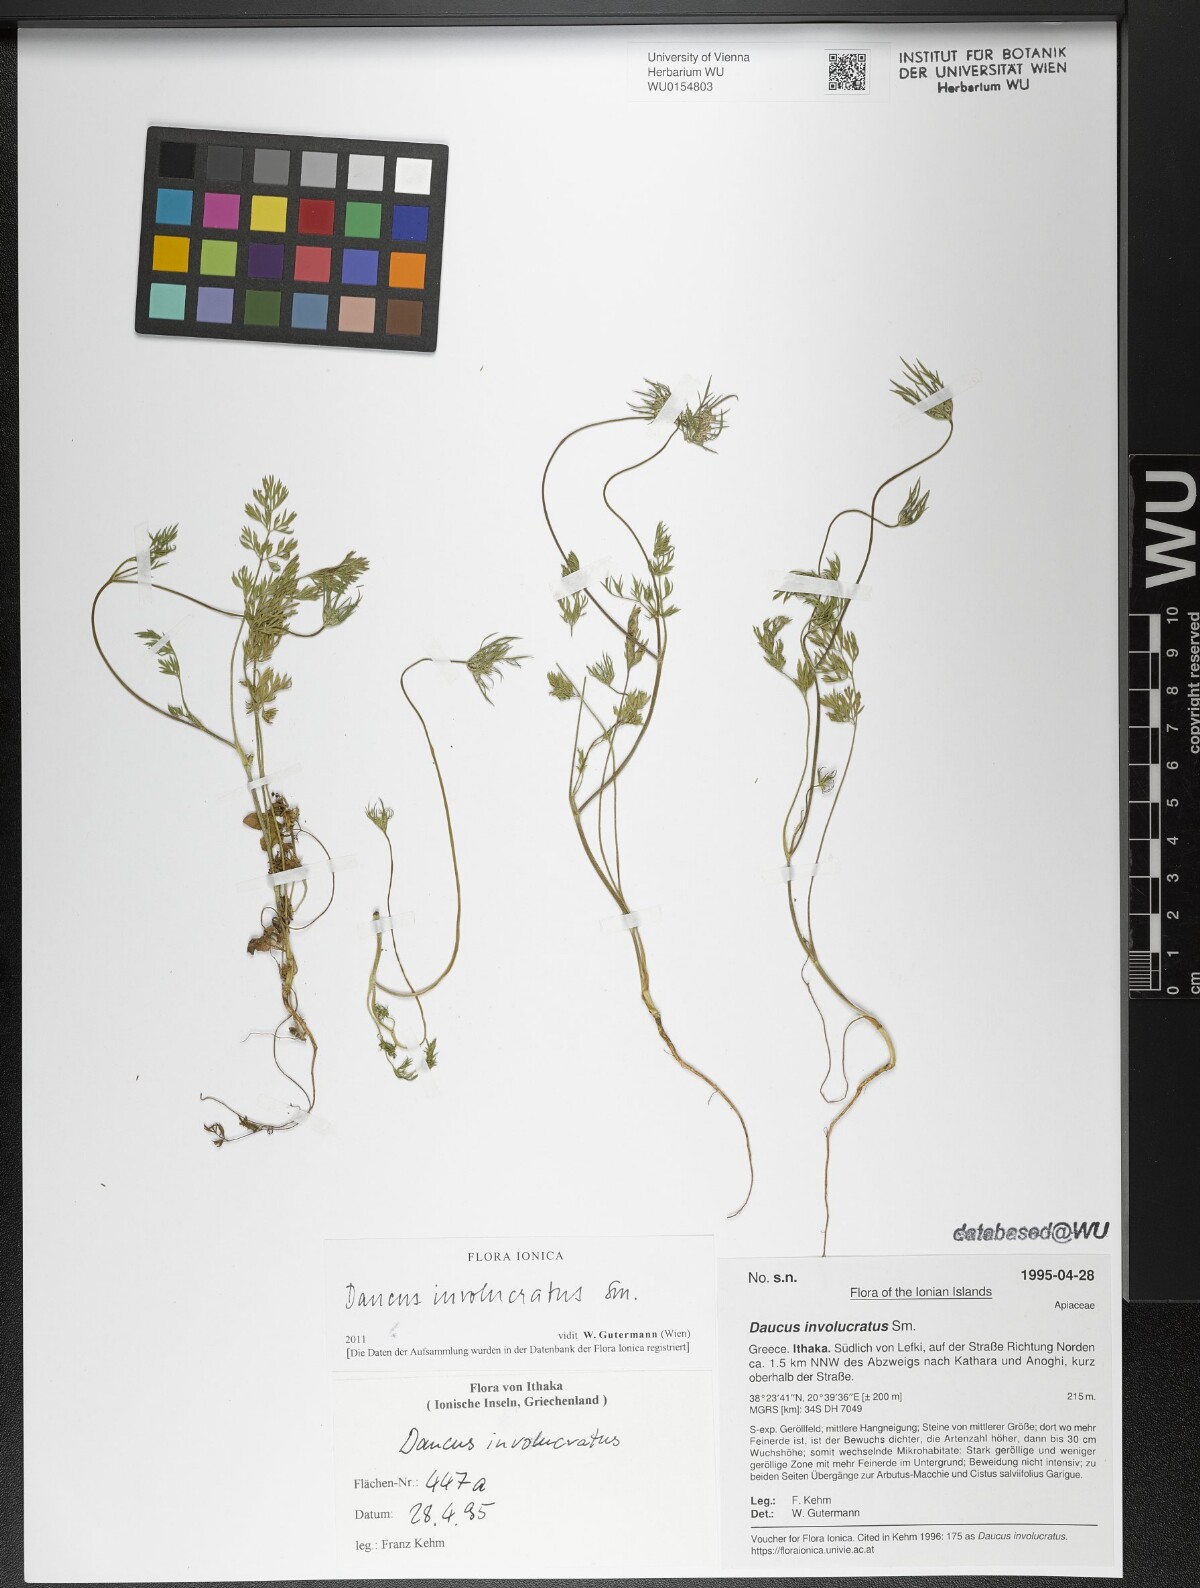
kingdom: Plantae
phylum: Tracheophyta
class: Magnoliopsida
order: Apiales
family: Apiaceae
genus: Daucus
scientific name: Daucus involucratus
